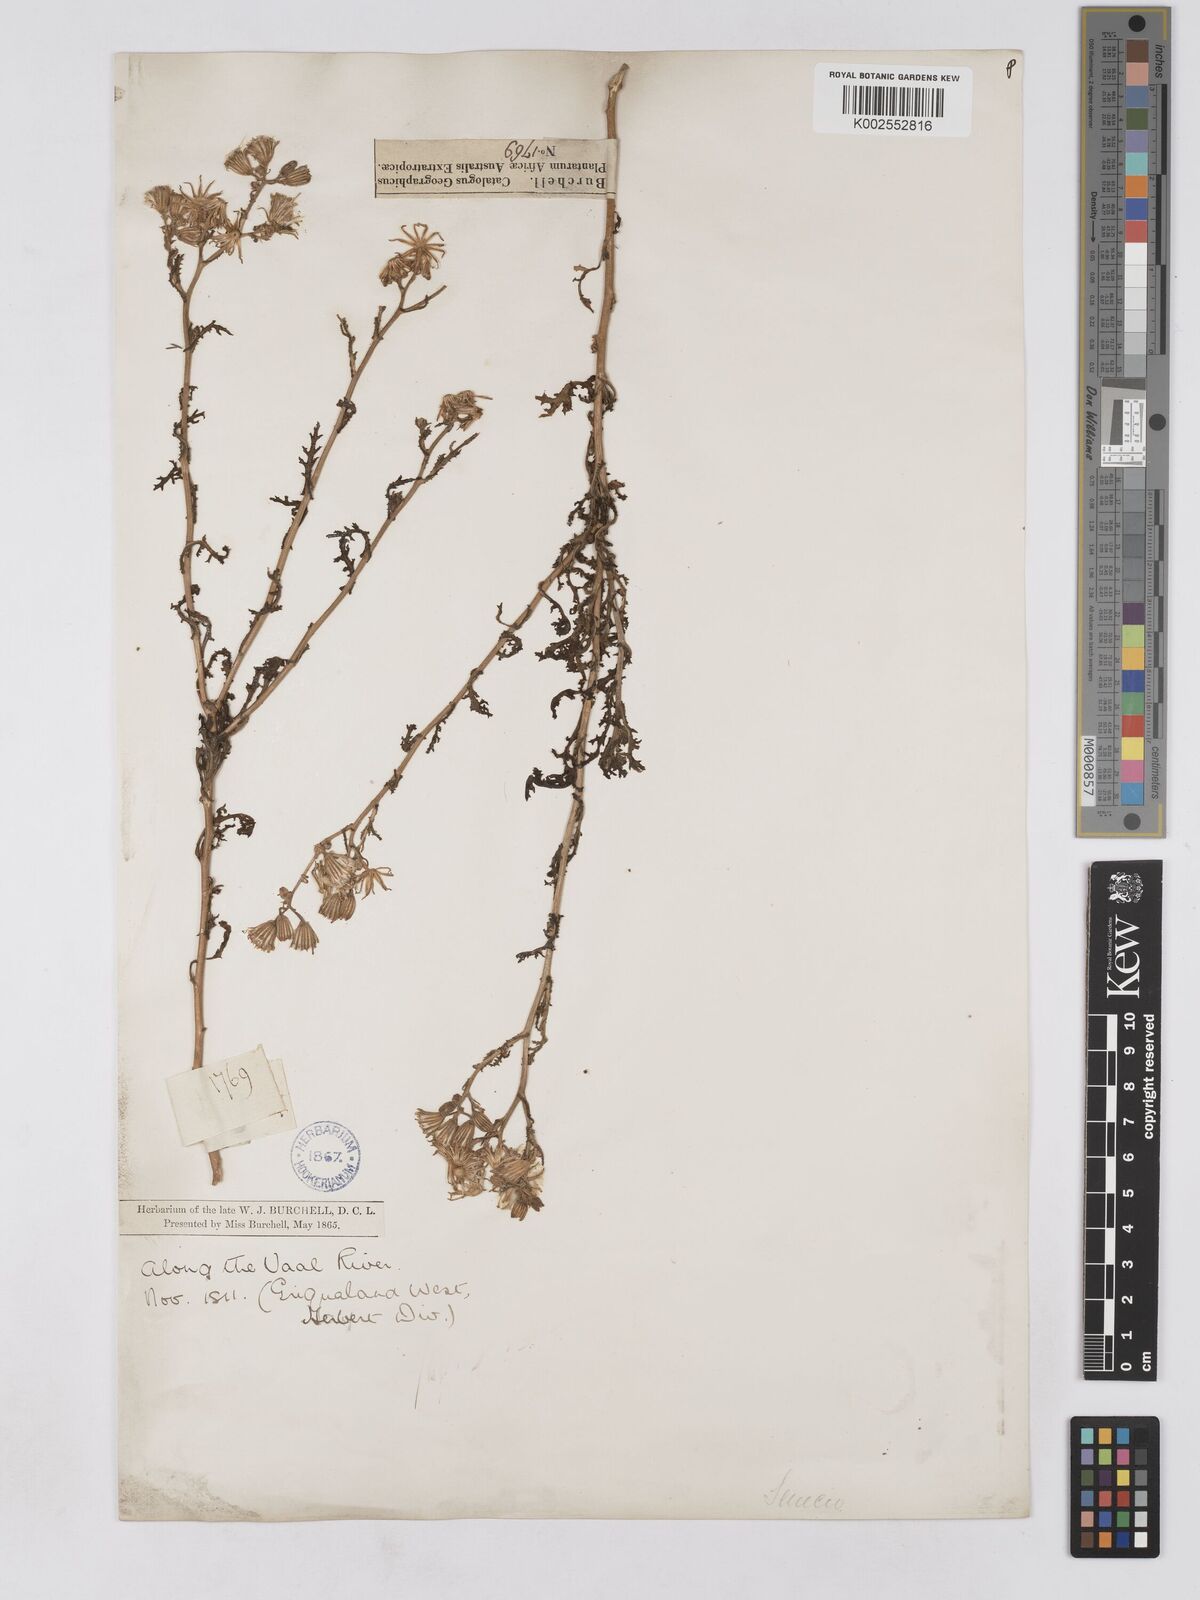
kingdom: Plantae
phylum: Tracheophyta
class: Magnoliopsida
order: Asterales
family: Asteraceae
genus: Senecio
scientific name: Senecio consanguineus
